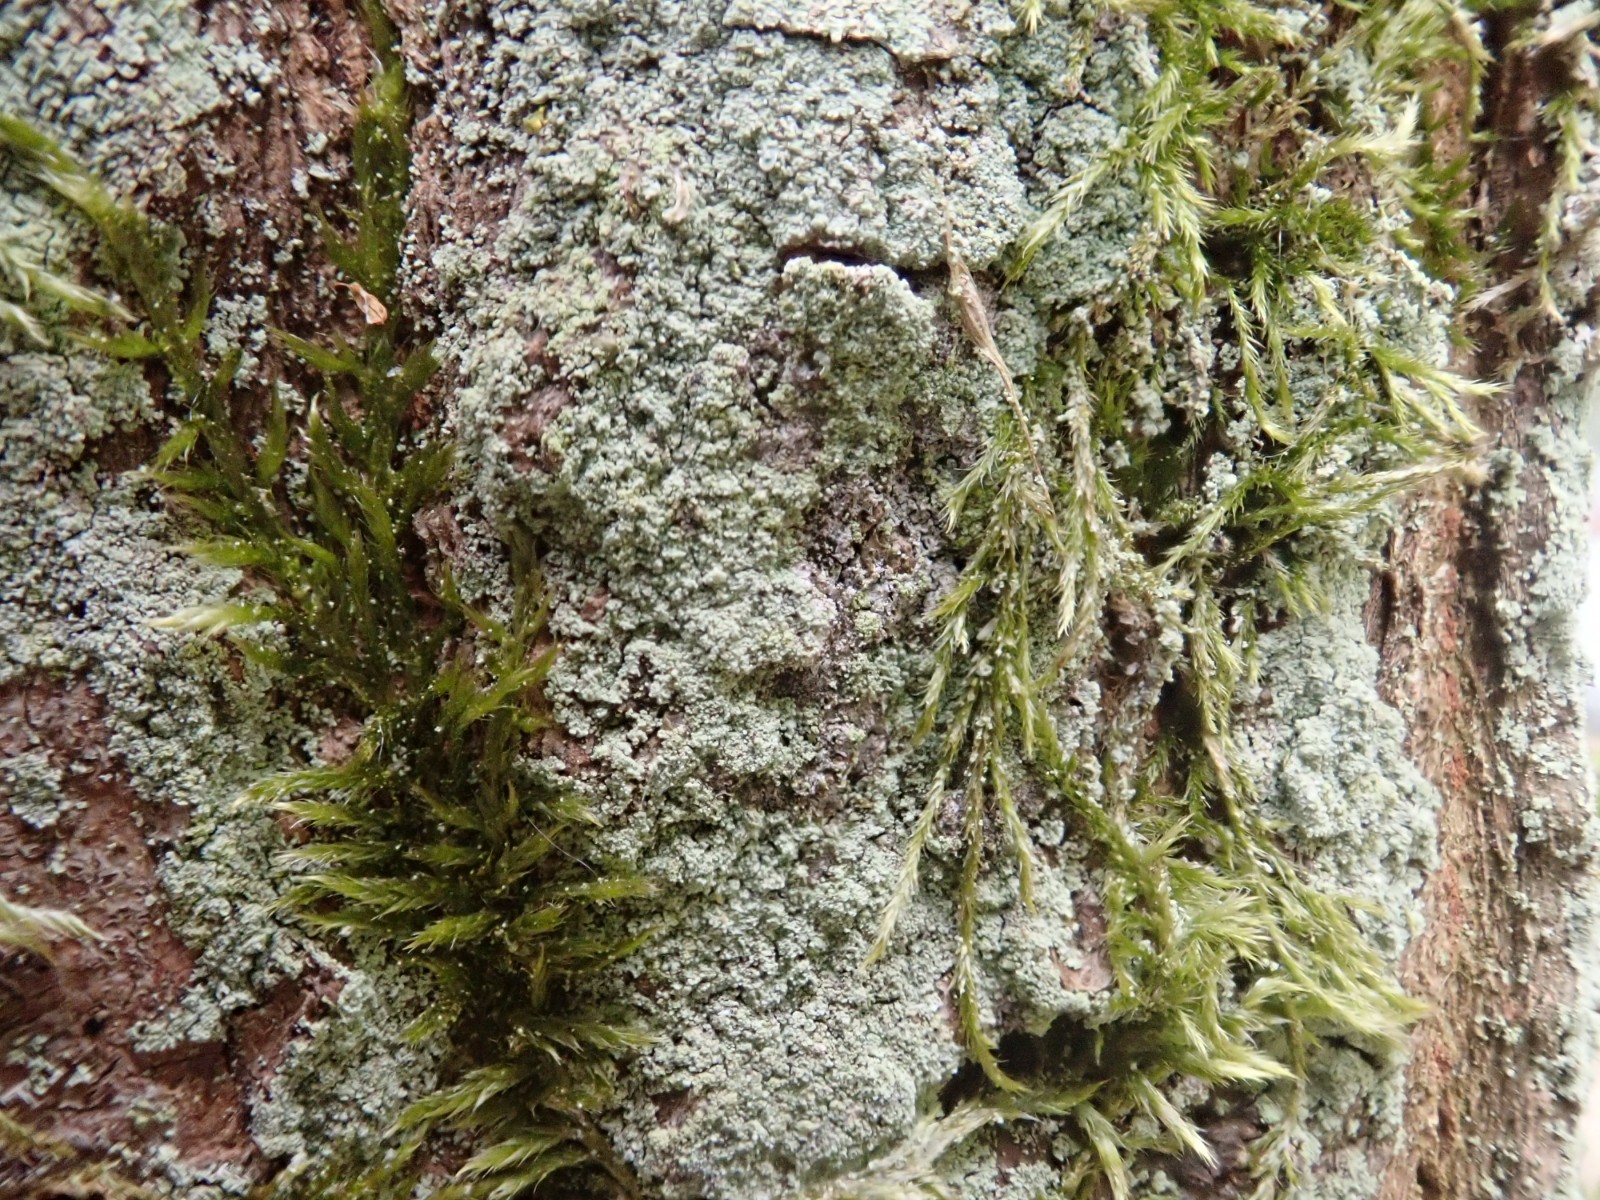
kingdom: Fungi
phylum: Ascomycota
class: Lecanoromycetes
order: Lecanorales
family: Stereocaulaceae
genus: Lepraria
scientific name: Lepraria incana
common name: almindelig støvlav
